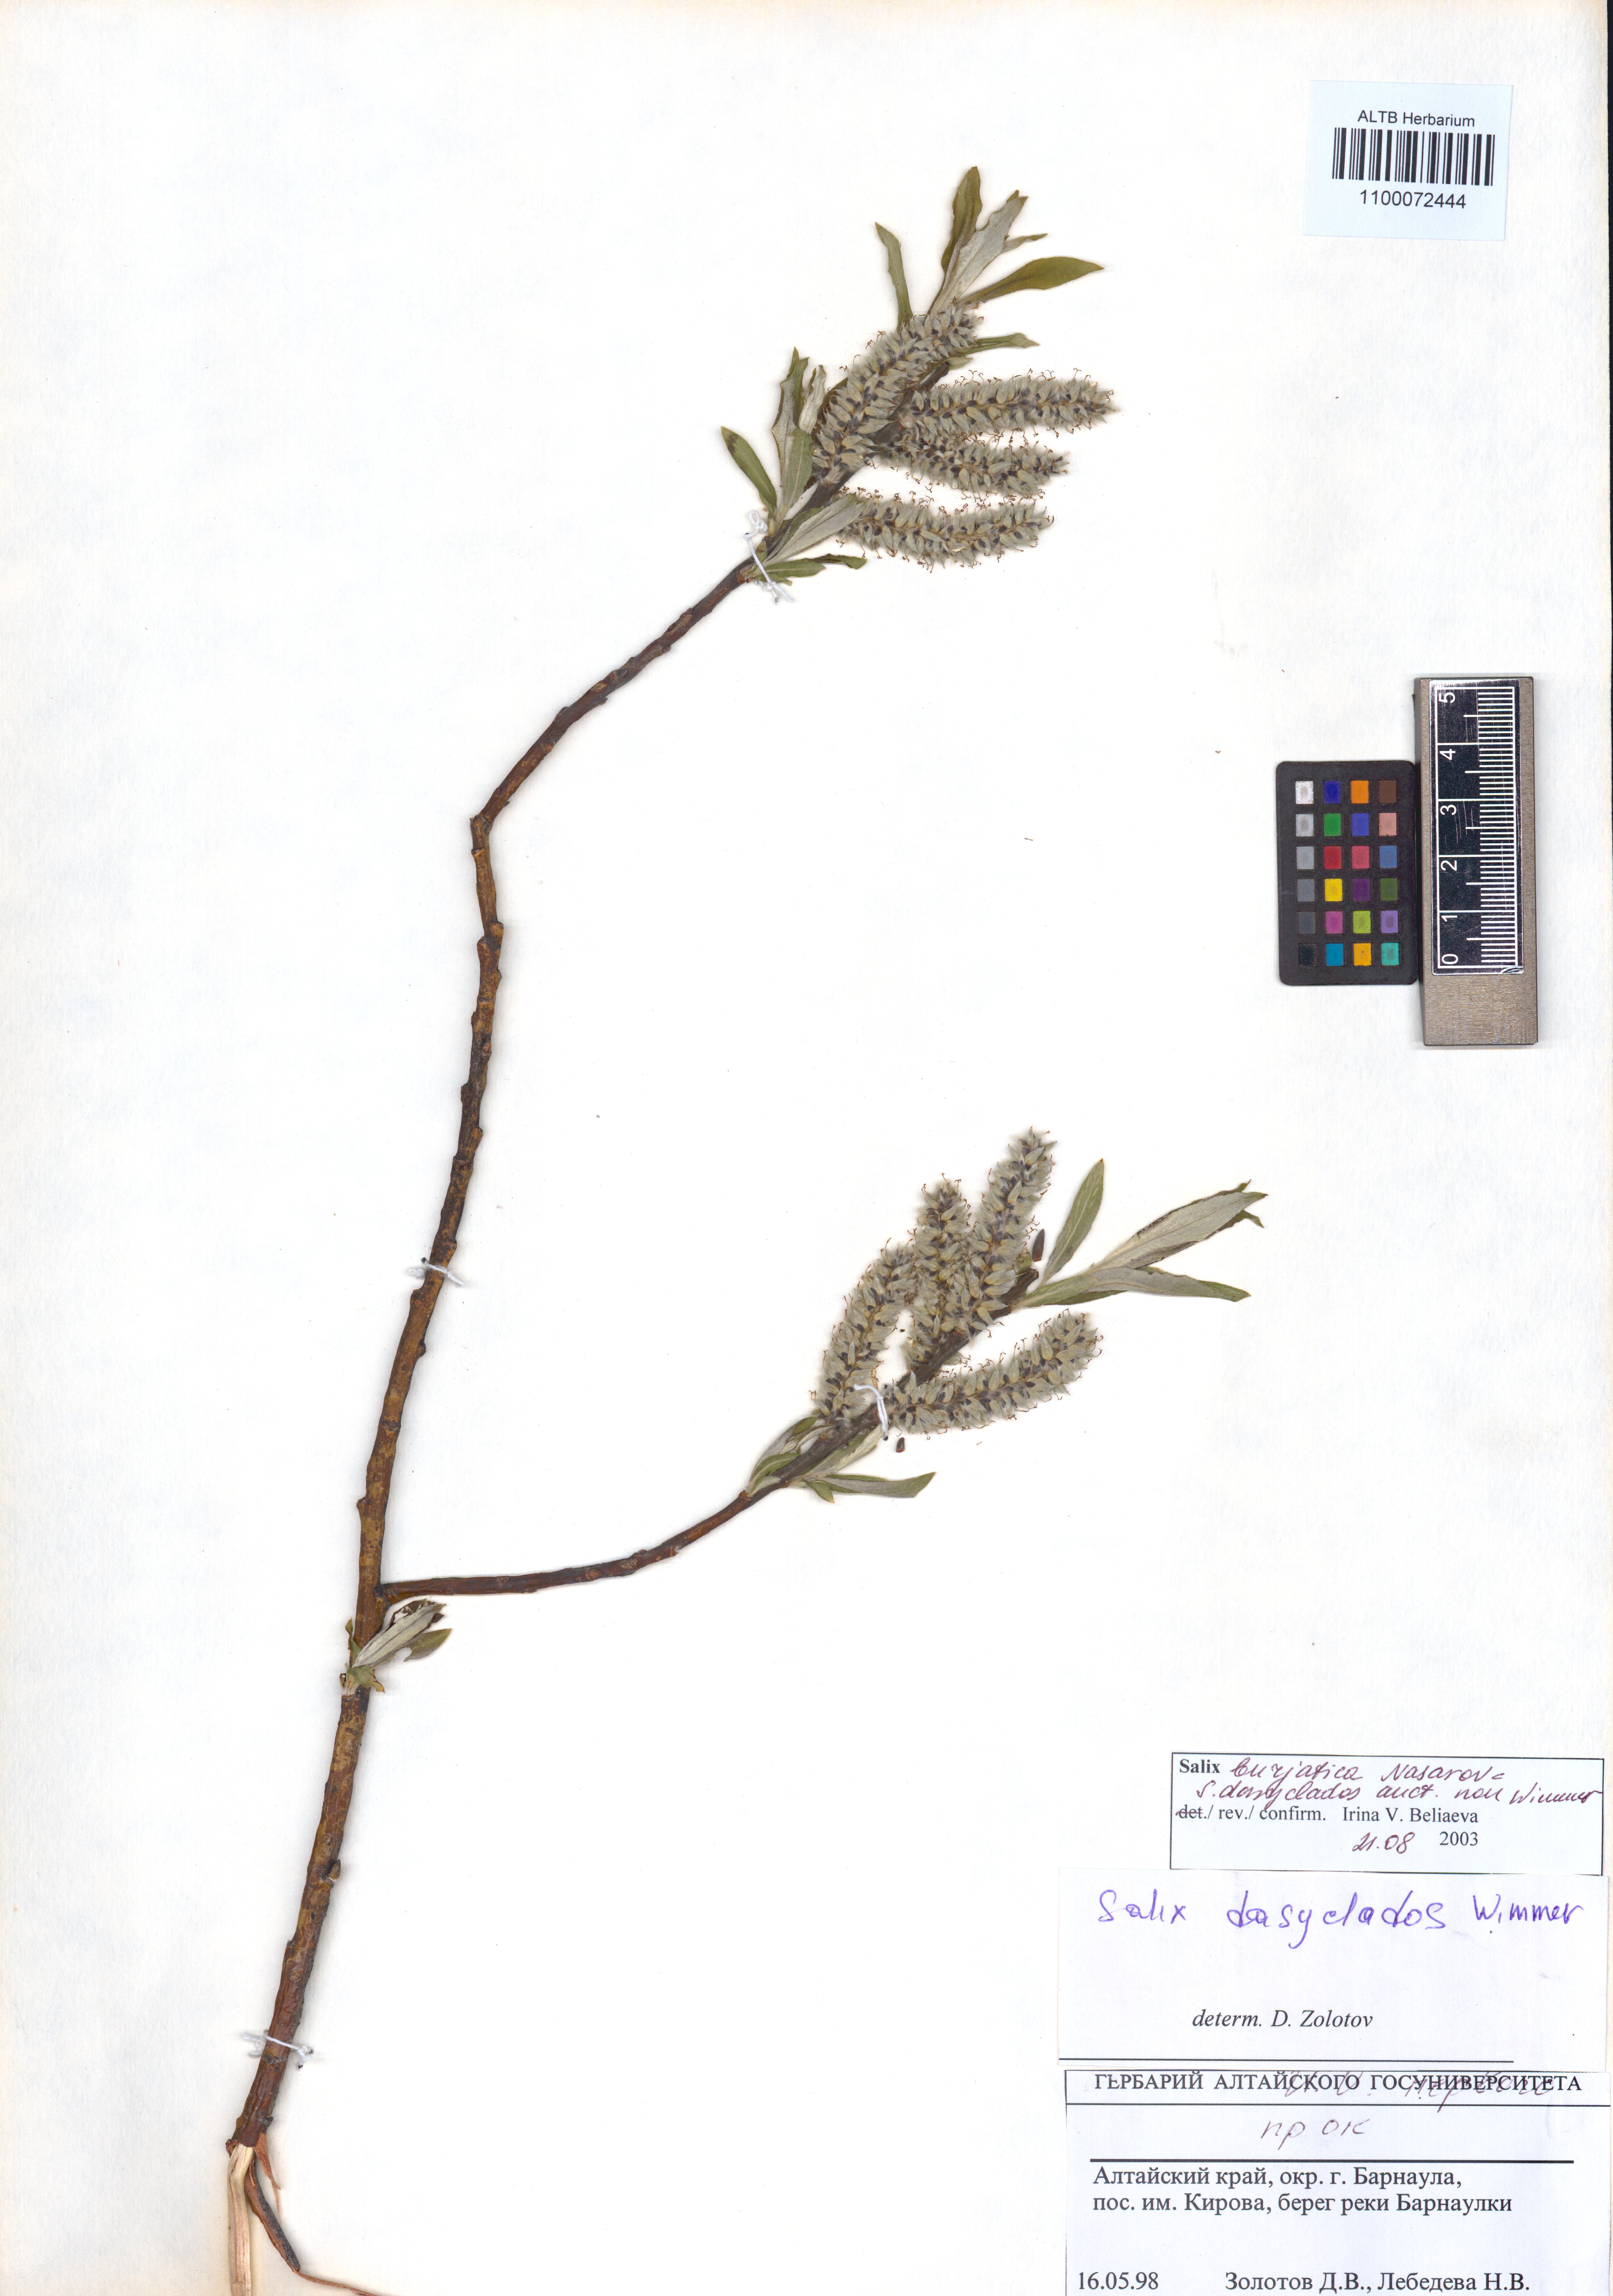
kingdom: Plantae
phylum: Tracheophyta
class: Magnoliopsida
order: Malpighiales
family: Salicaceae
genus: Salix
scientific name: Salix gmelinii
